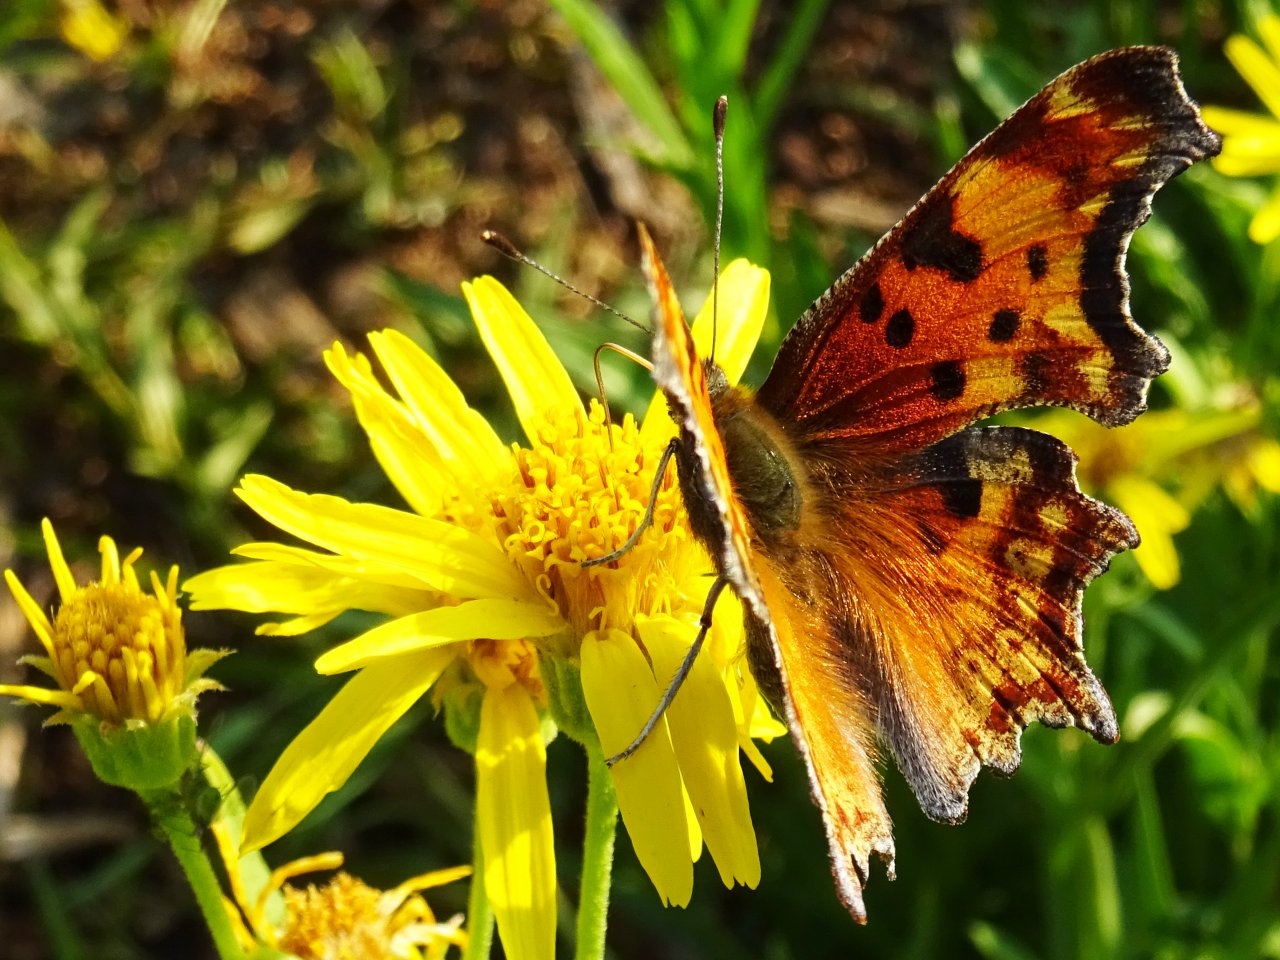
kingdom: Animalia
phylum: Arthropoda
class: Insecta
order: Lepidoptera
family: Nymphalidae
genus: Polygonia
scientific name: Polygonia gracilis
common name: Hoary Comma
